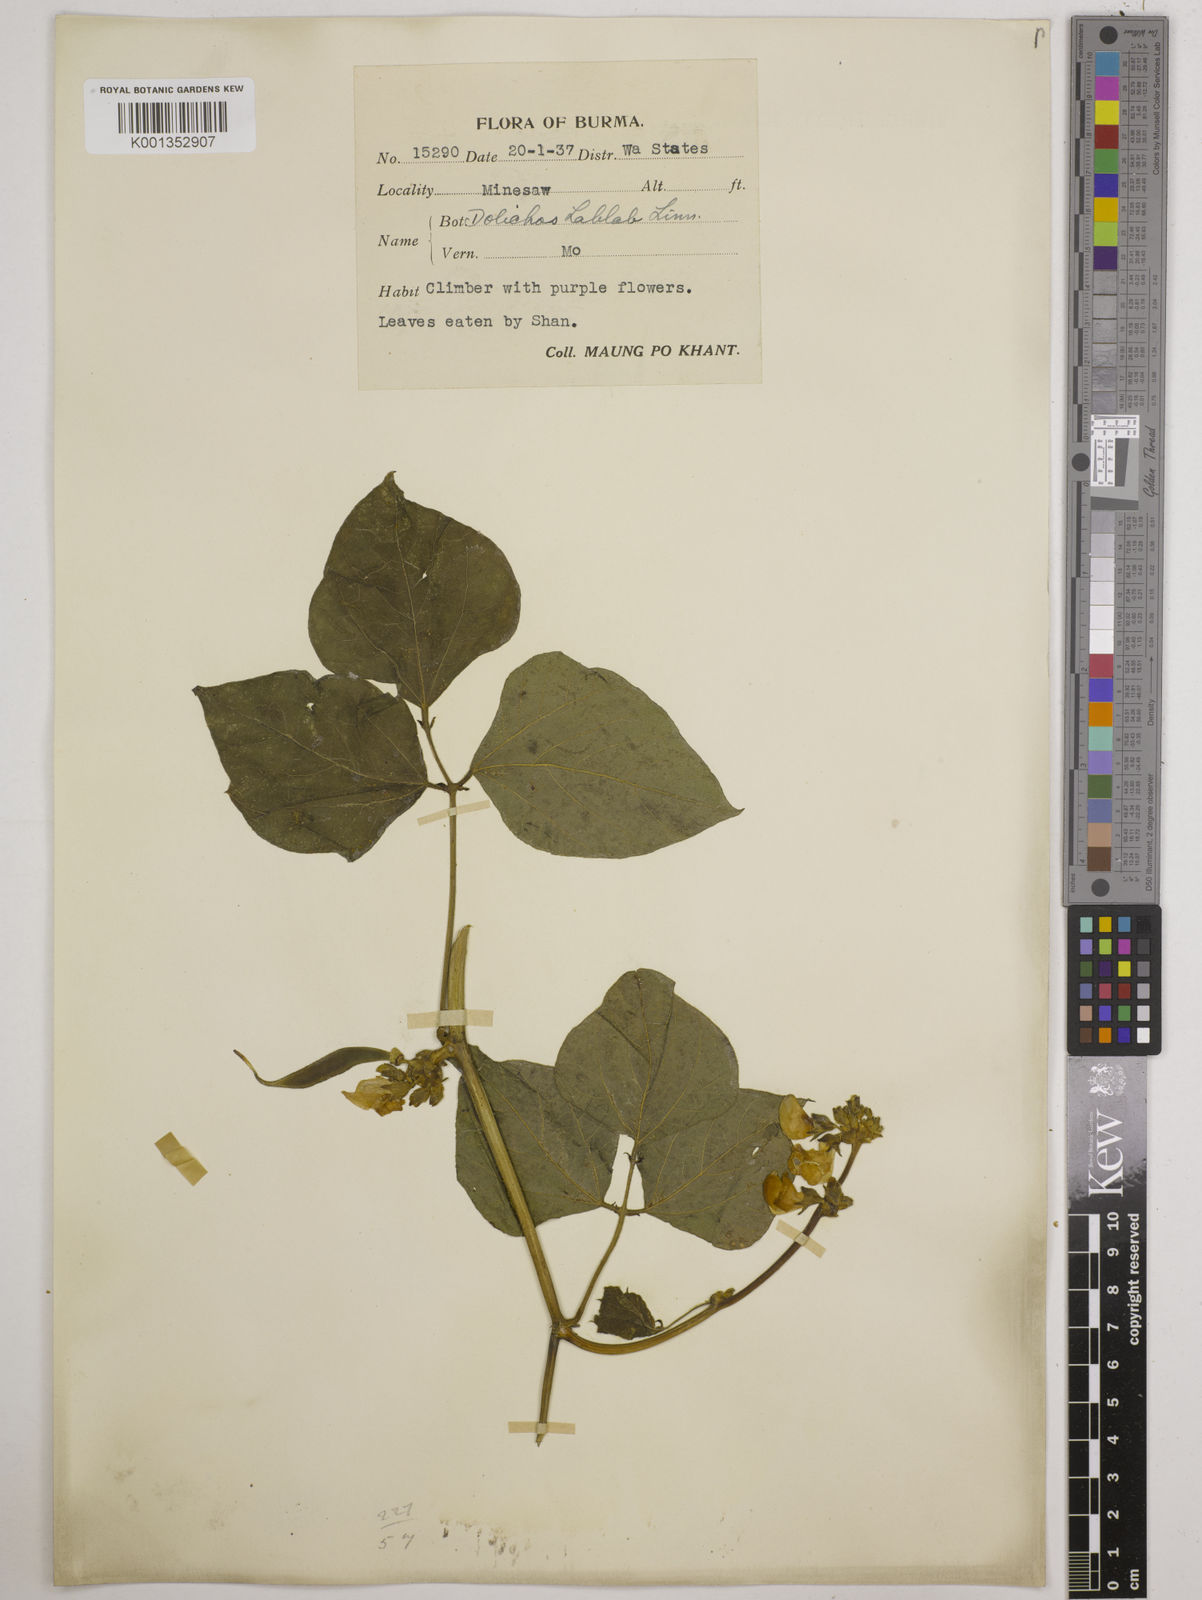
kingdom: Plantae
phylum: Tracheophyta
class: Magnoliopsida
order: Fabales
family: Fabaceae
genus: Lablab
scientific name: Lablab purpureus
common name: Lablab-bean
